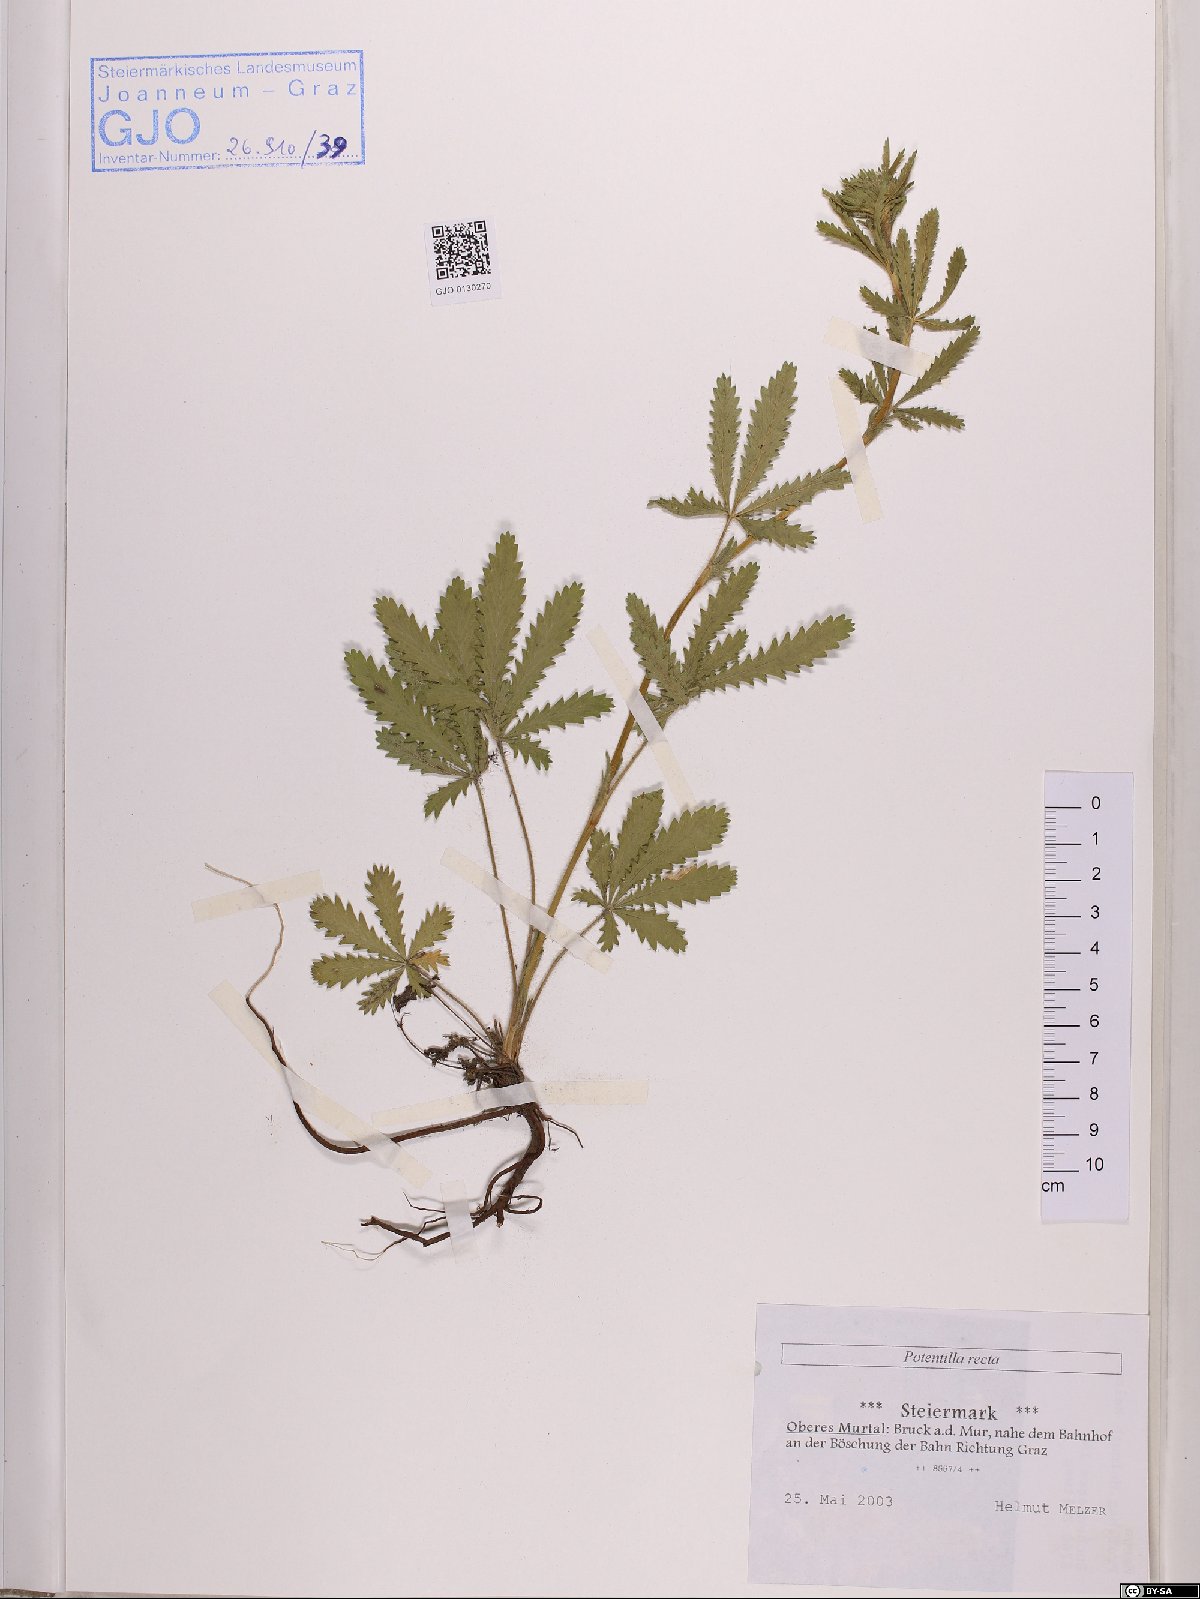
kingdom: Plantae
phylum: Tracheophyta
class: Magnoliopsida
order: Rosales
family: Rosaceae
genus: Potentilla
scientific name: Potentilla recta
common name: Sulphur cinquefoil
